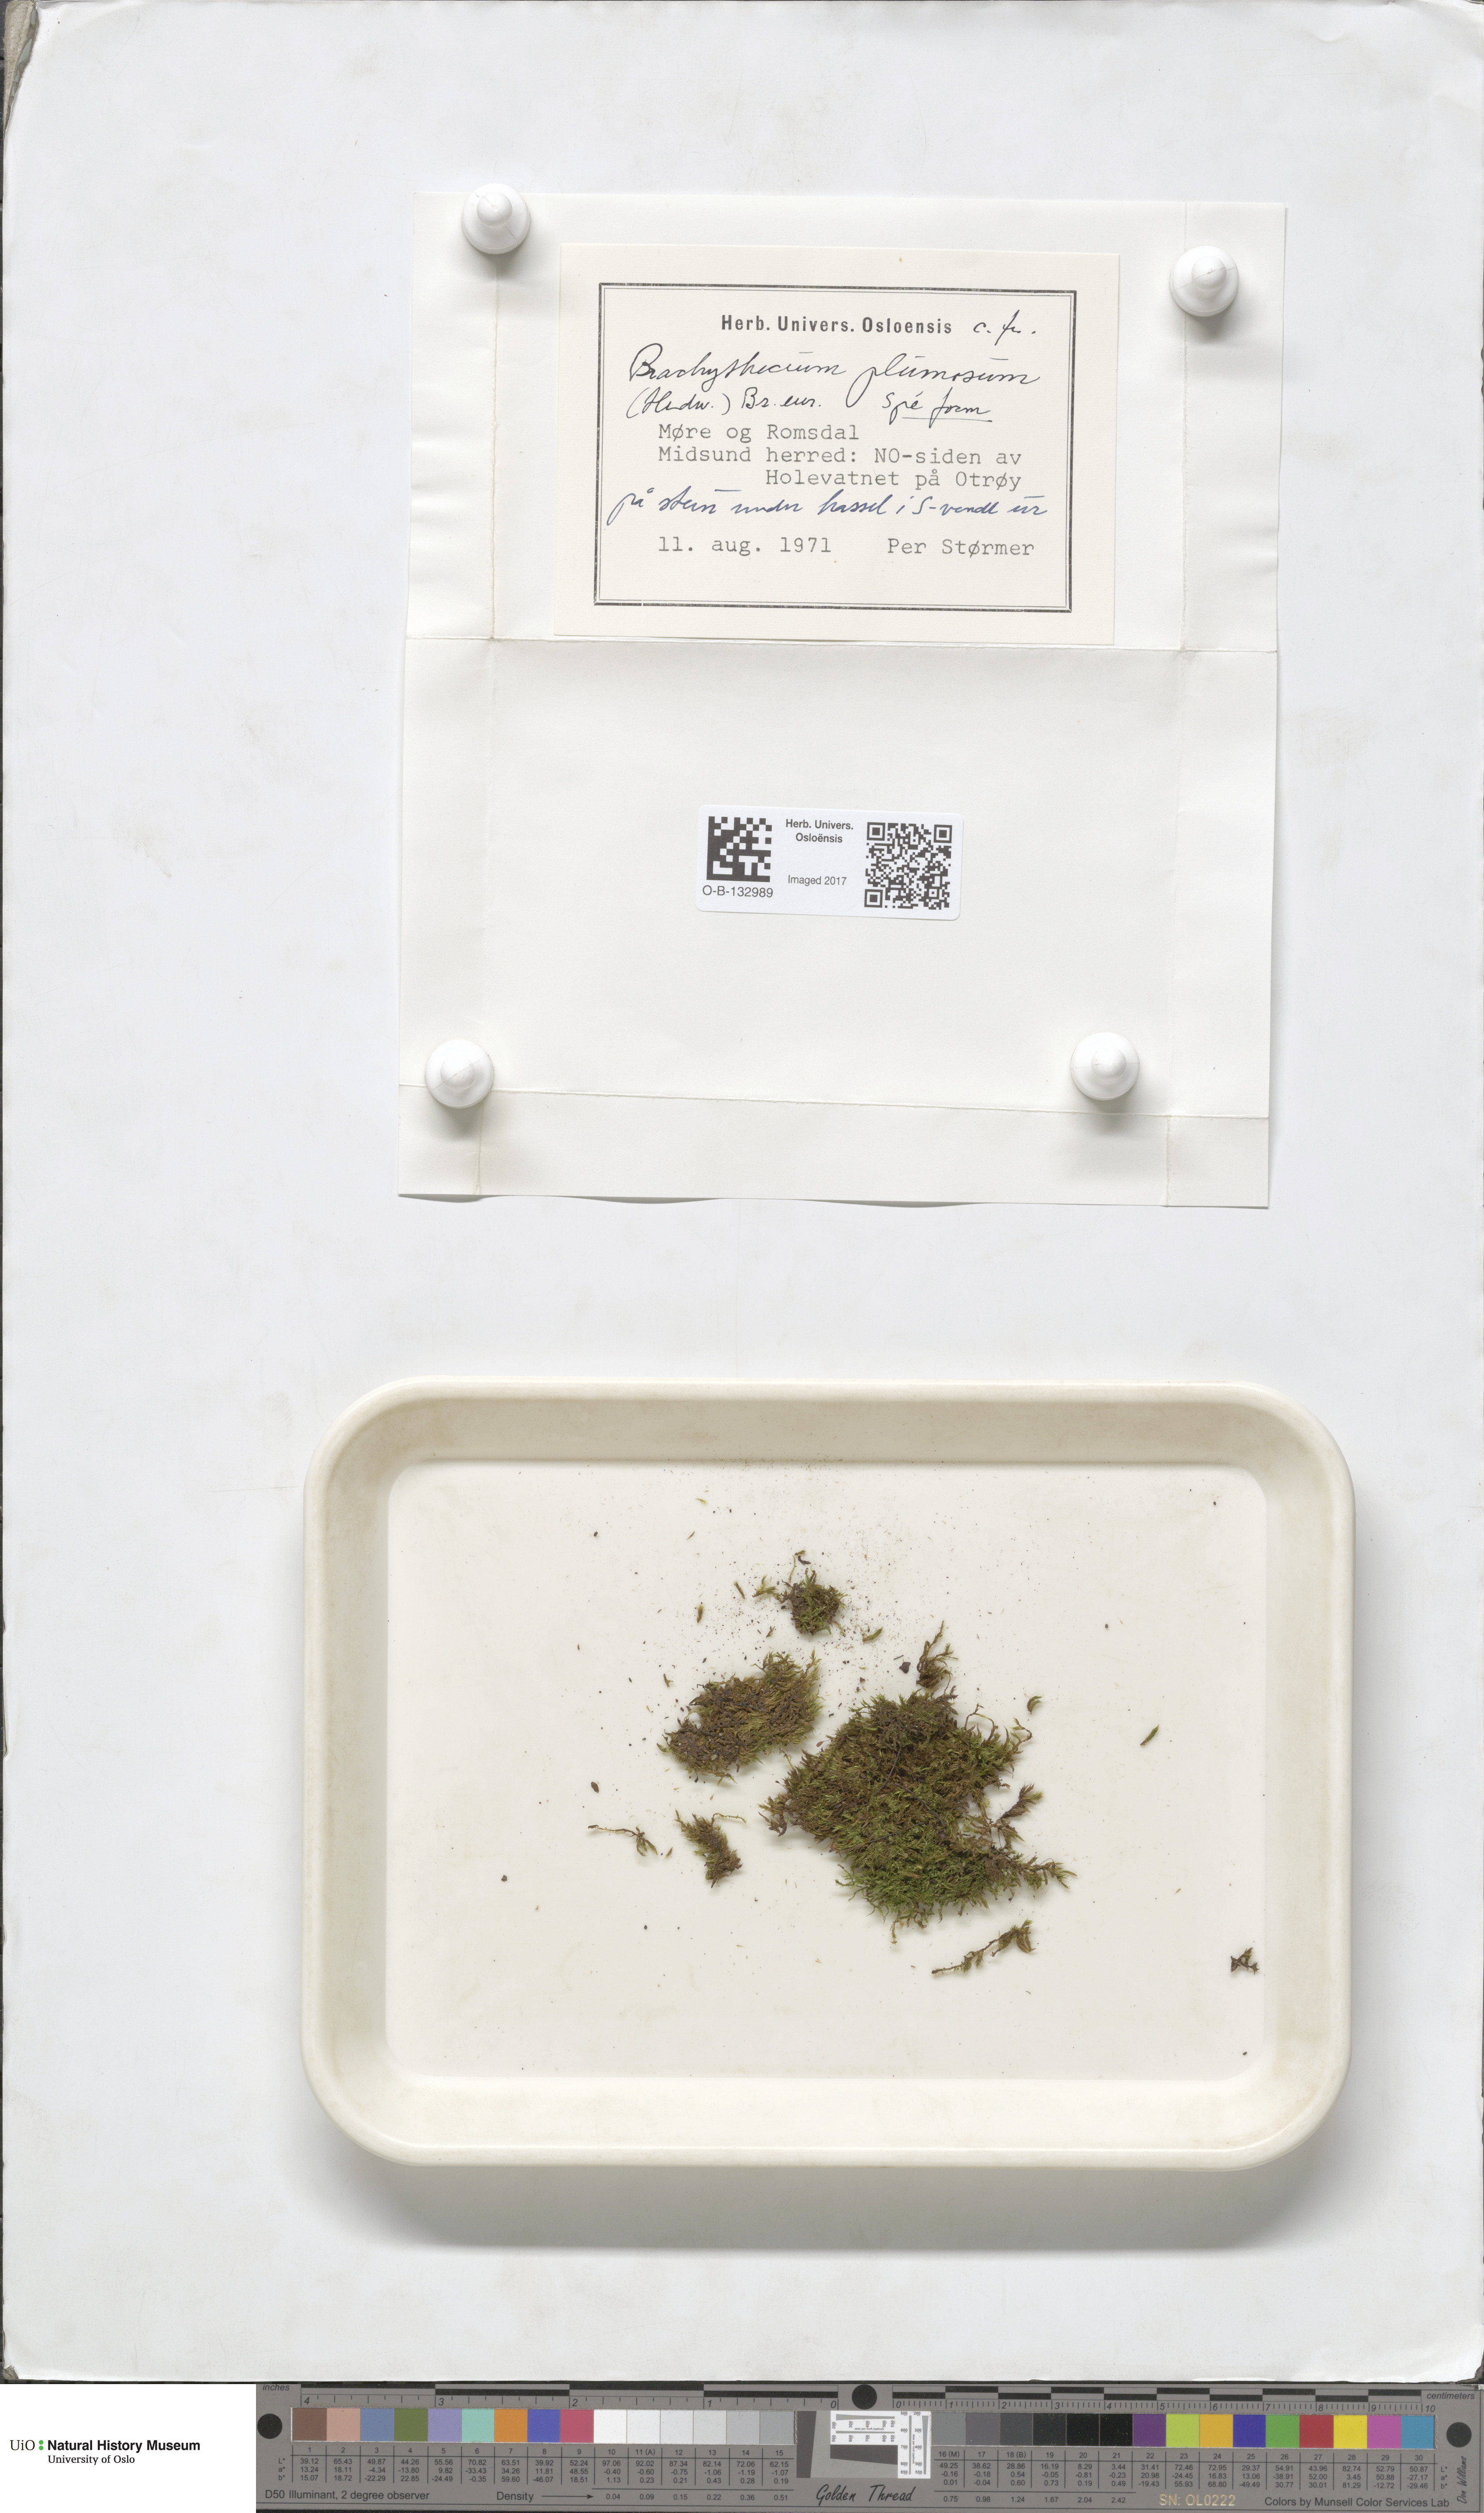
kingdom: Plantae
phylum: Bryophyta
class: Bryopsida
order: Hypnales
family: Brachytheciaceae
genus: Sciuro-hypnum
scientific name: Sciuro-hypnum plumosum
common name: Rusty feather-moss
